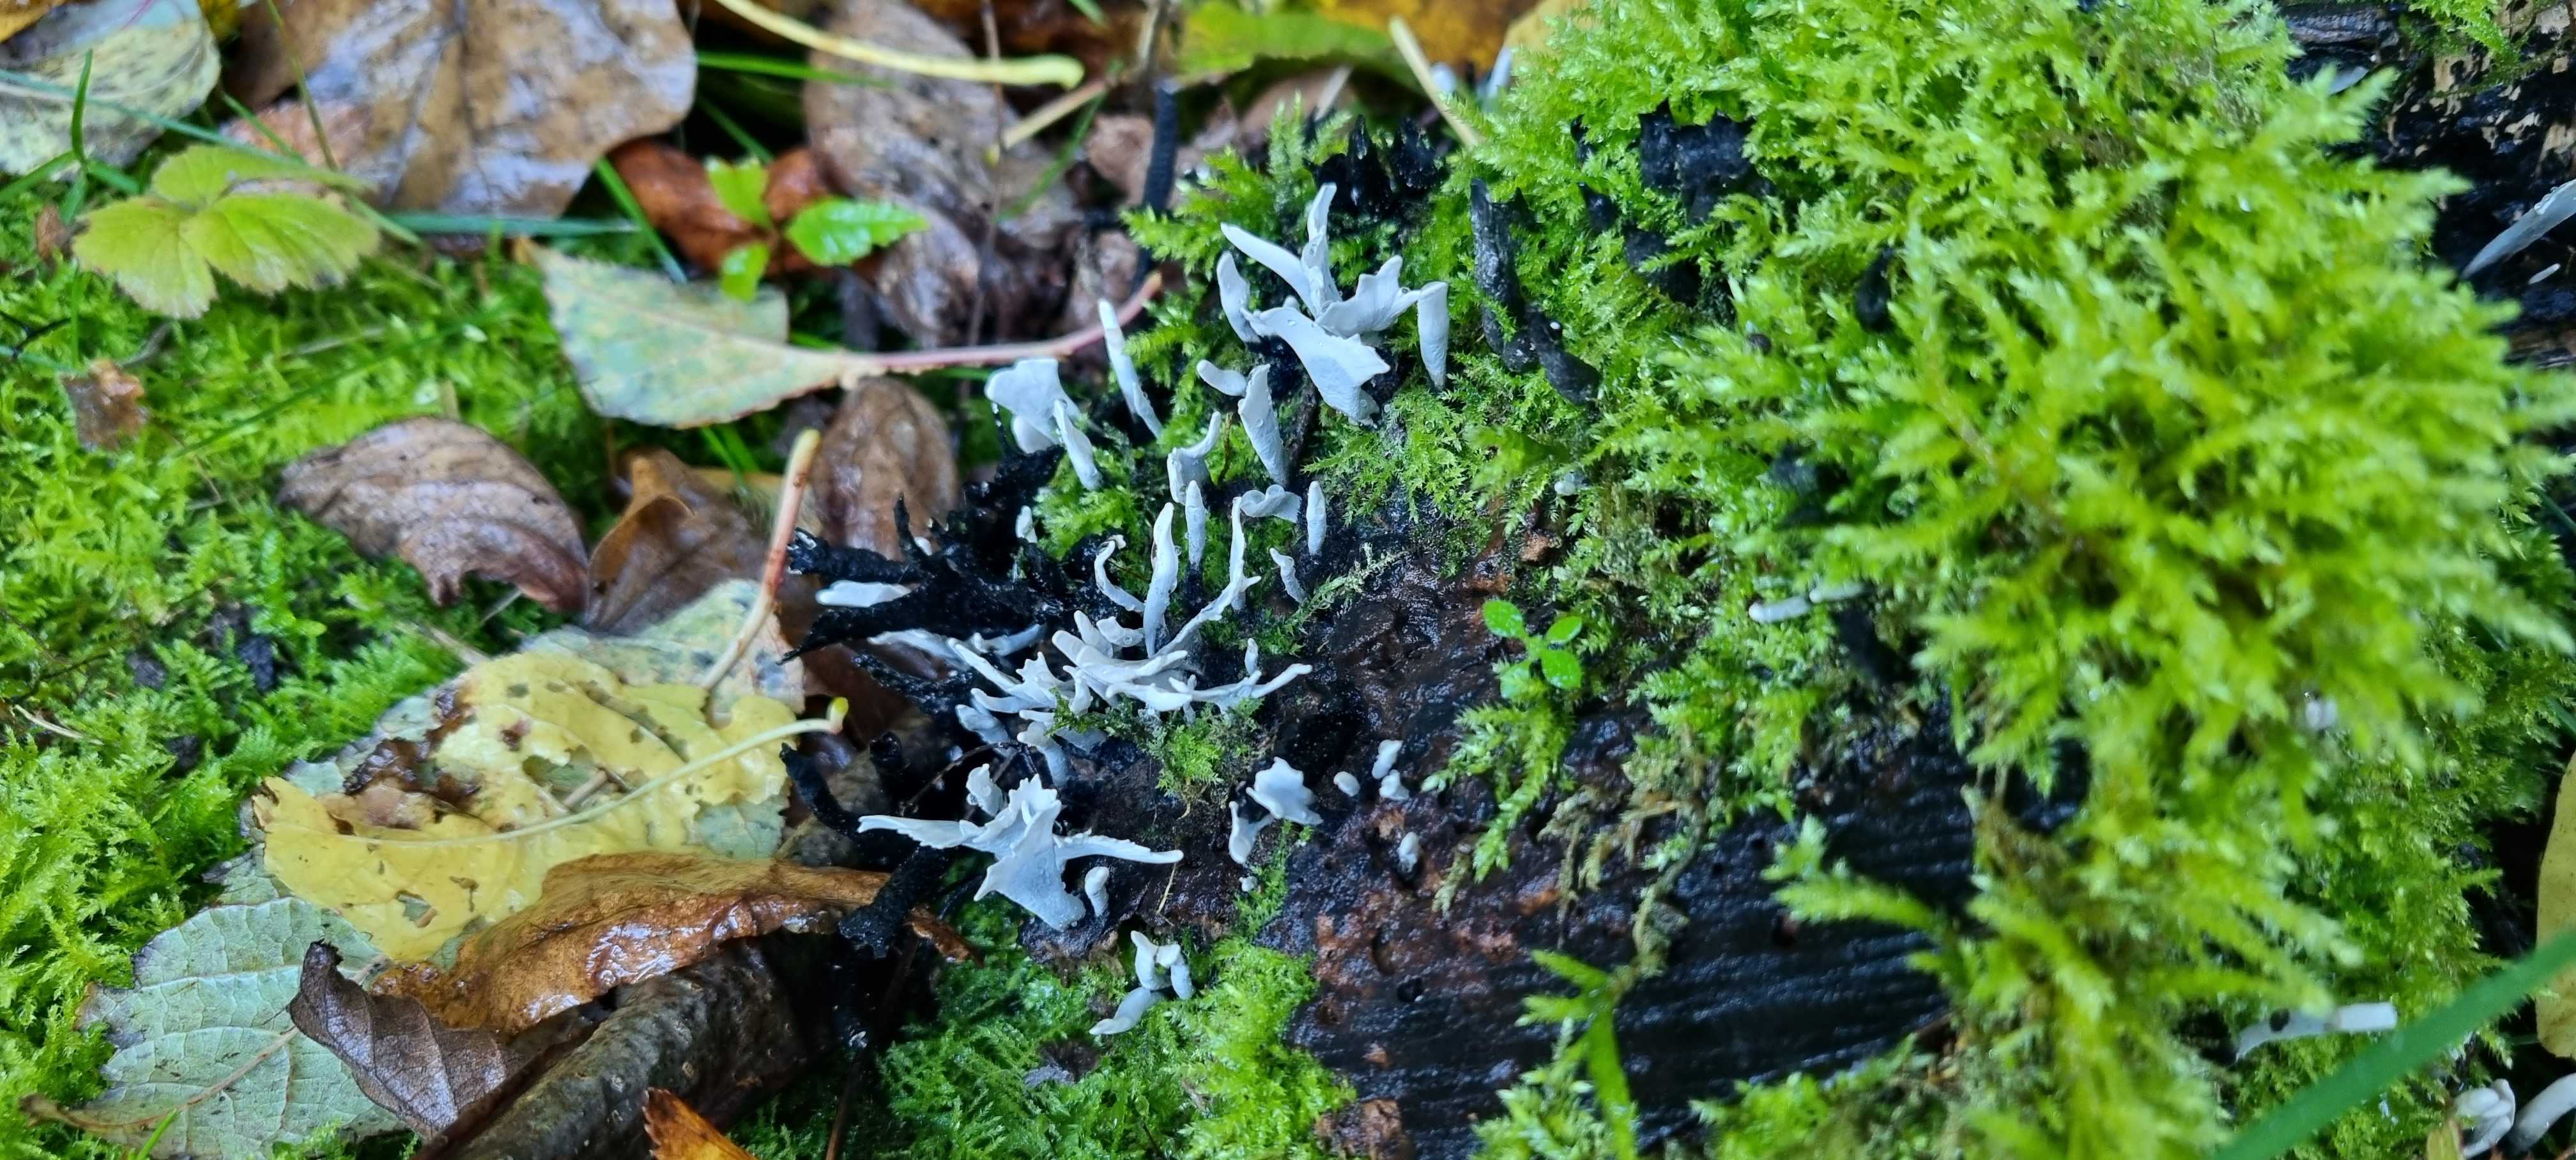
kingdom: Fungi
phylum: Ascomycota
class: Sordariomycetes
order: Xylariales
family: Xylariaceae
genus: Xylaria
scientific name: Xylaria hypoxylon
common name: grenet stødsvamp
